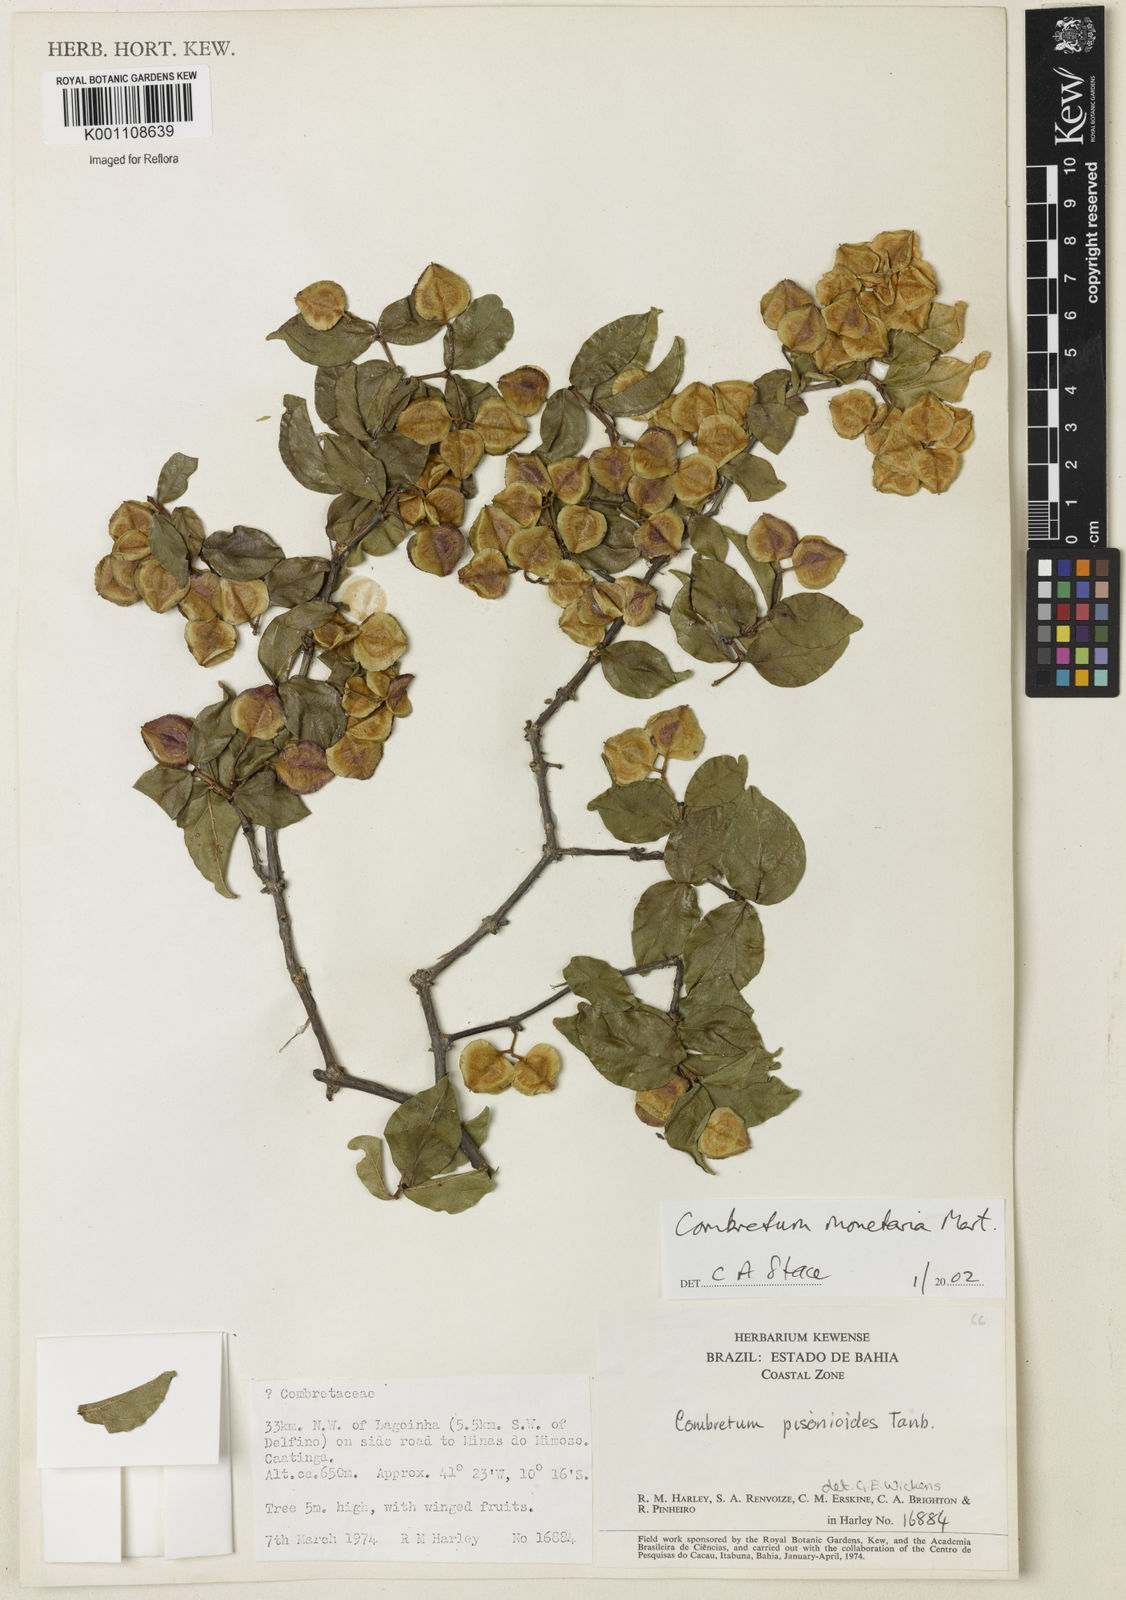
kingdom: Plantae
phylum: Tracheophyta
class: Magnoliopsida
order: Myrtales
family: Combretaceae
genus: Combretum
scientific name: Combretum monetaria
